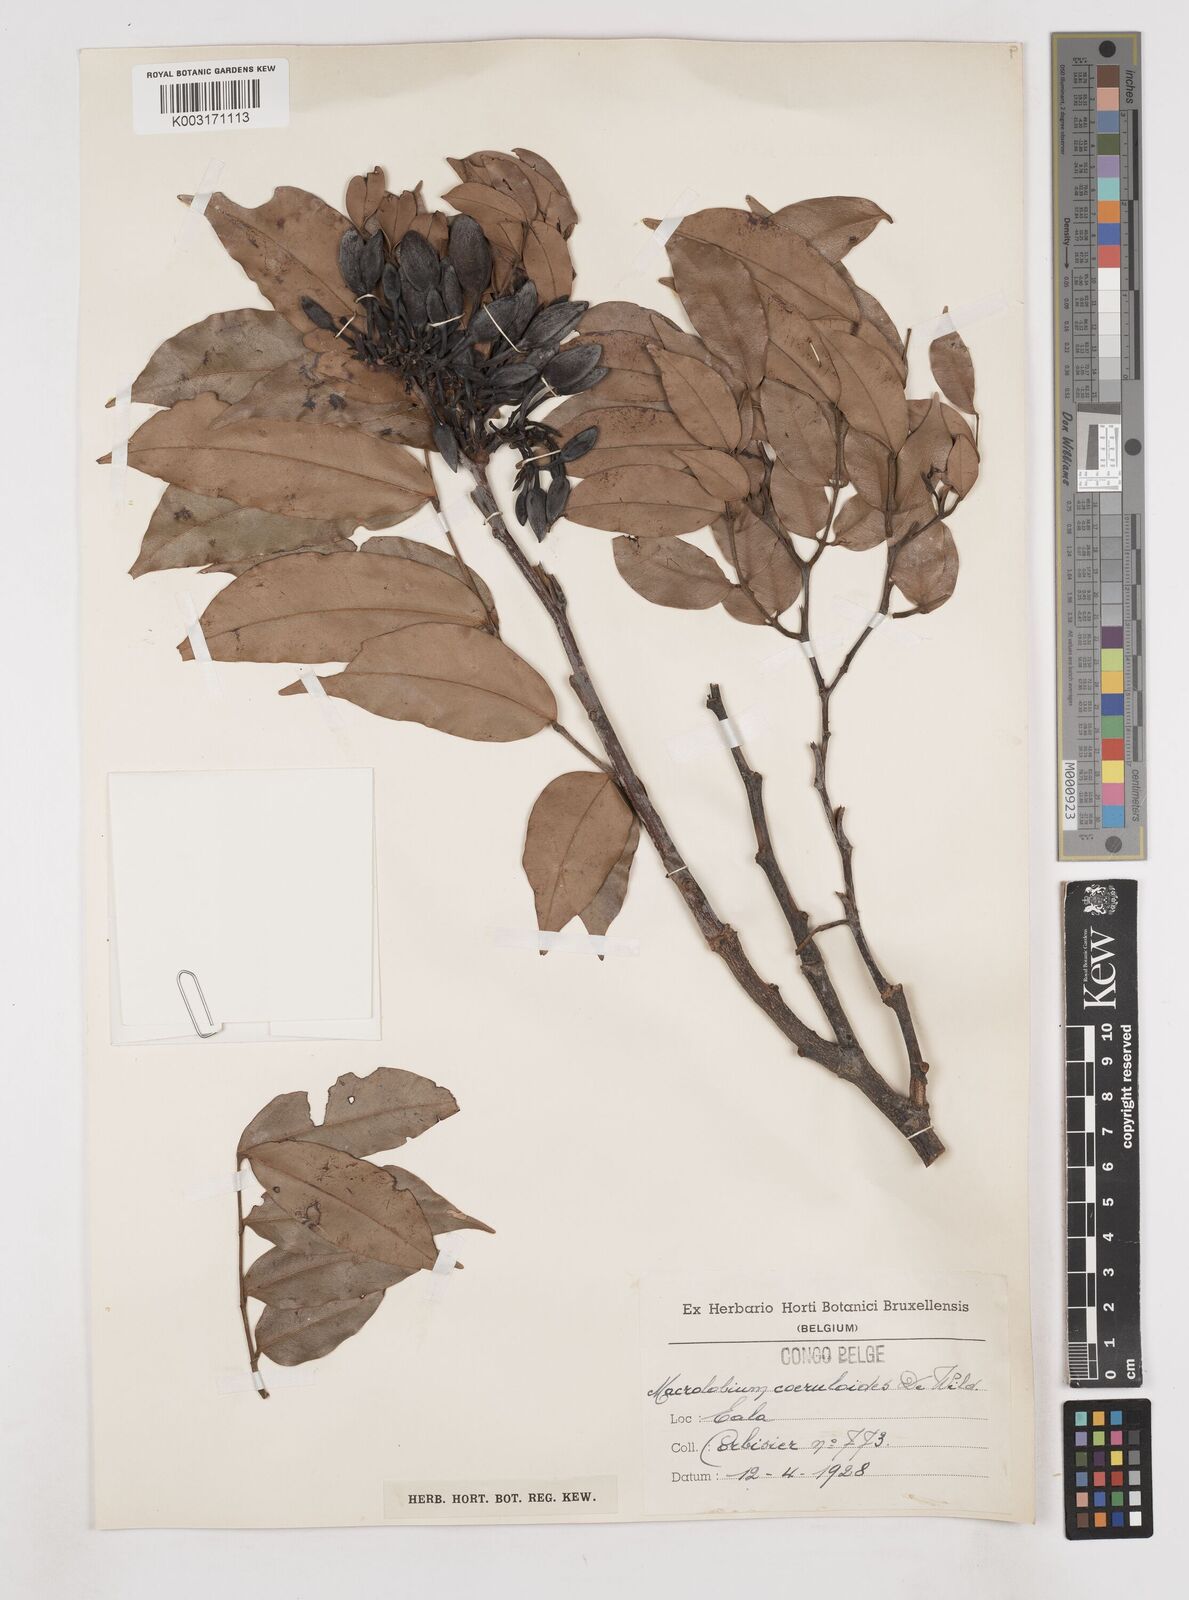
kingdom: Plantae
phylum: Tracheophyta
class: Magnoliopsida
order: Fabales
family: Fabaceae
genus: Paramacrolobium
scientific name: Paramacrolobium coeruleum
